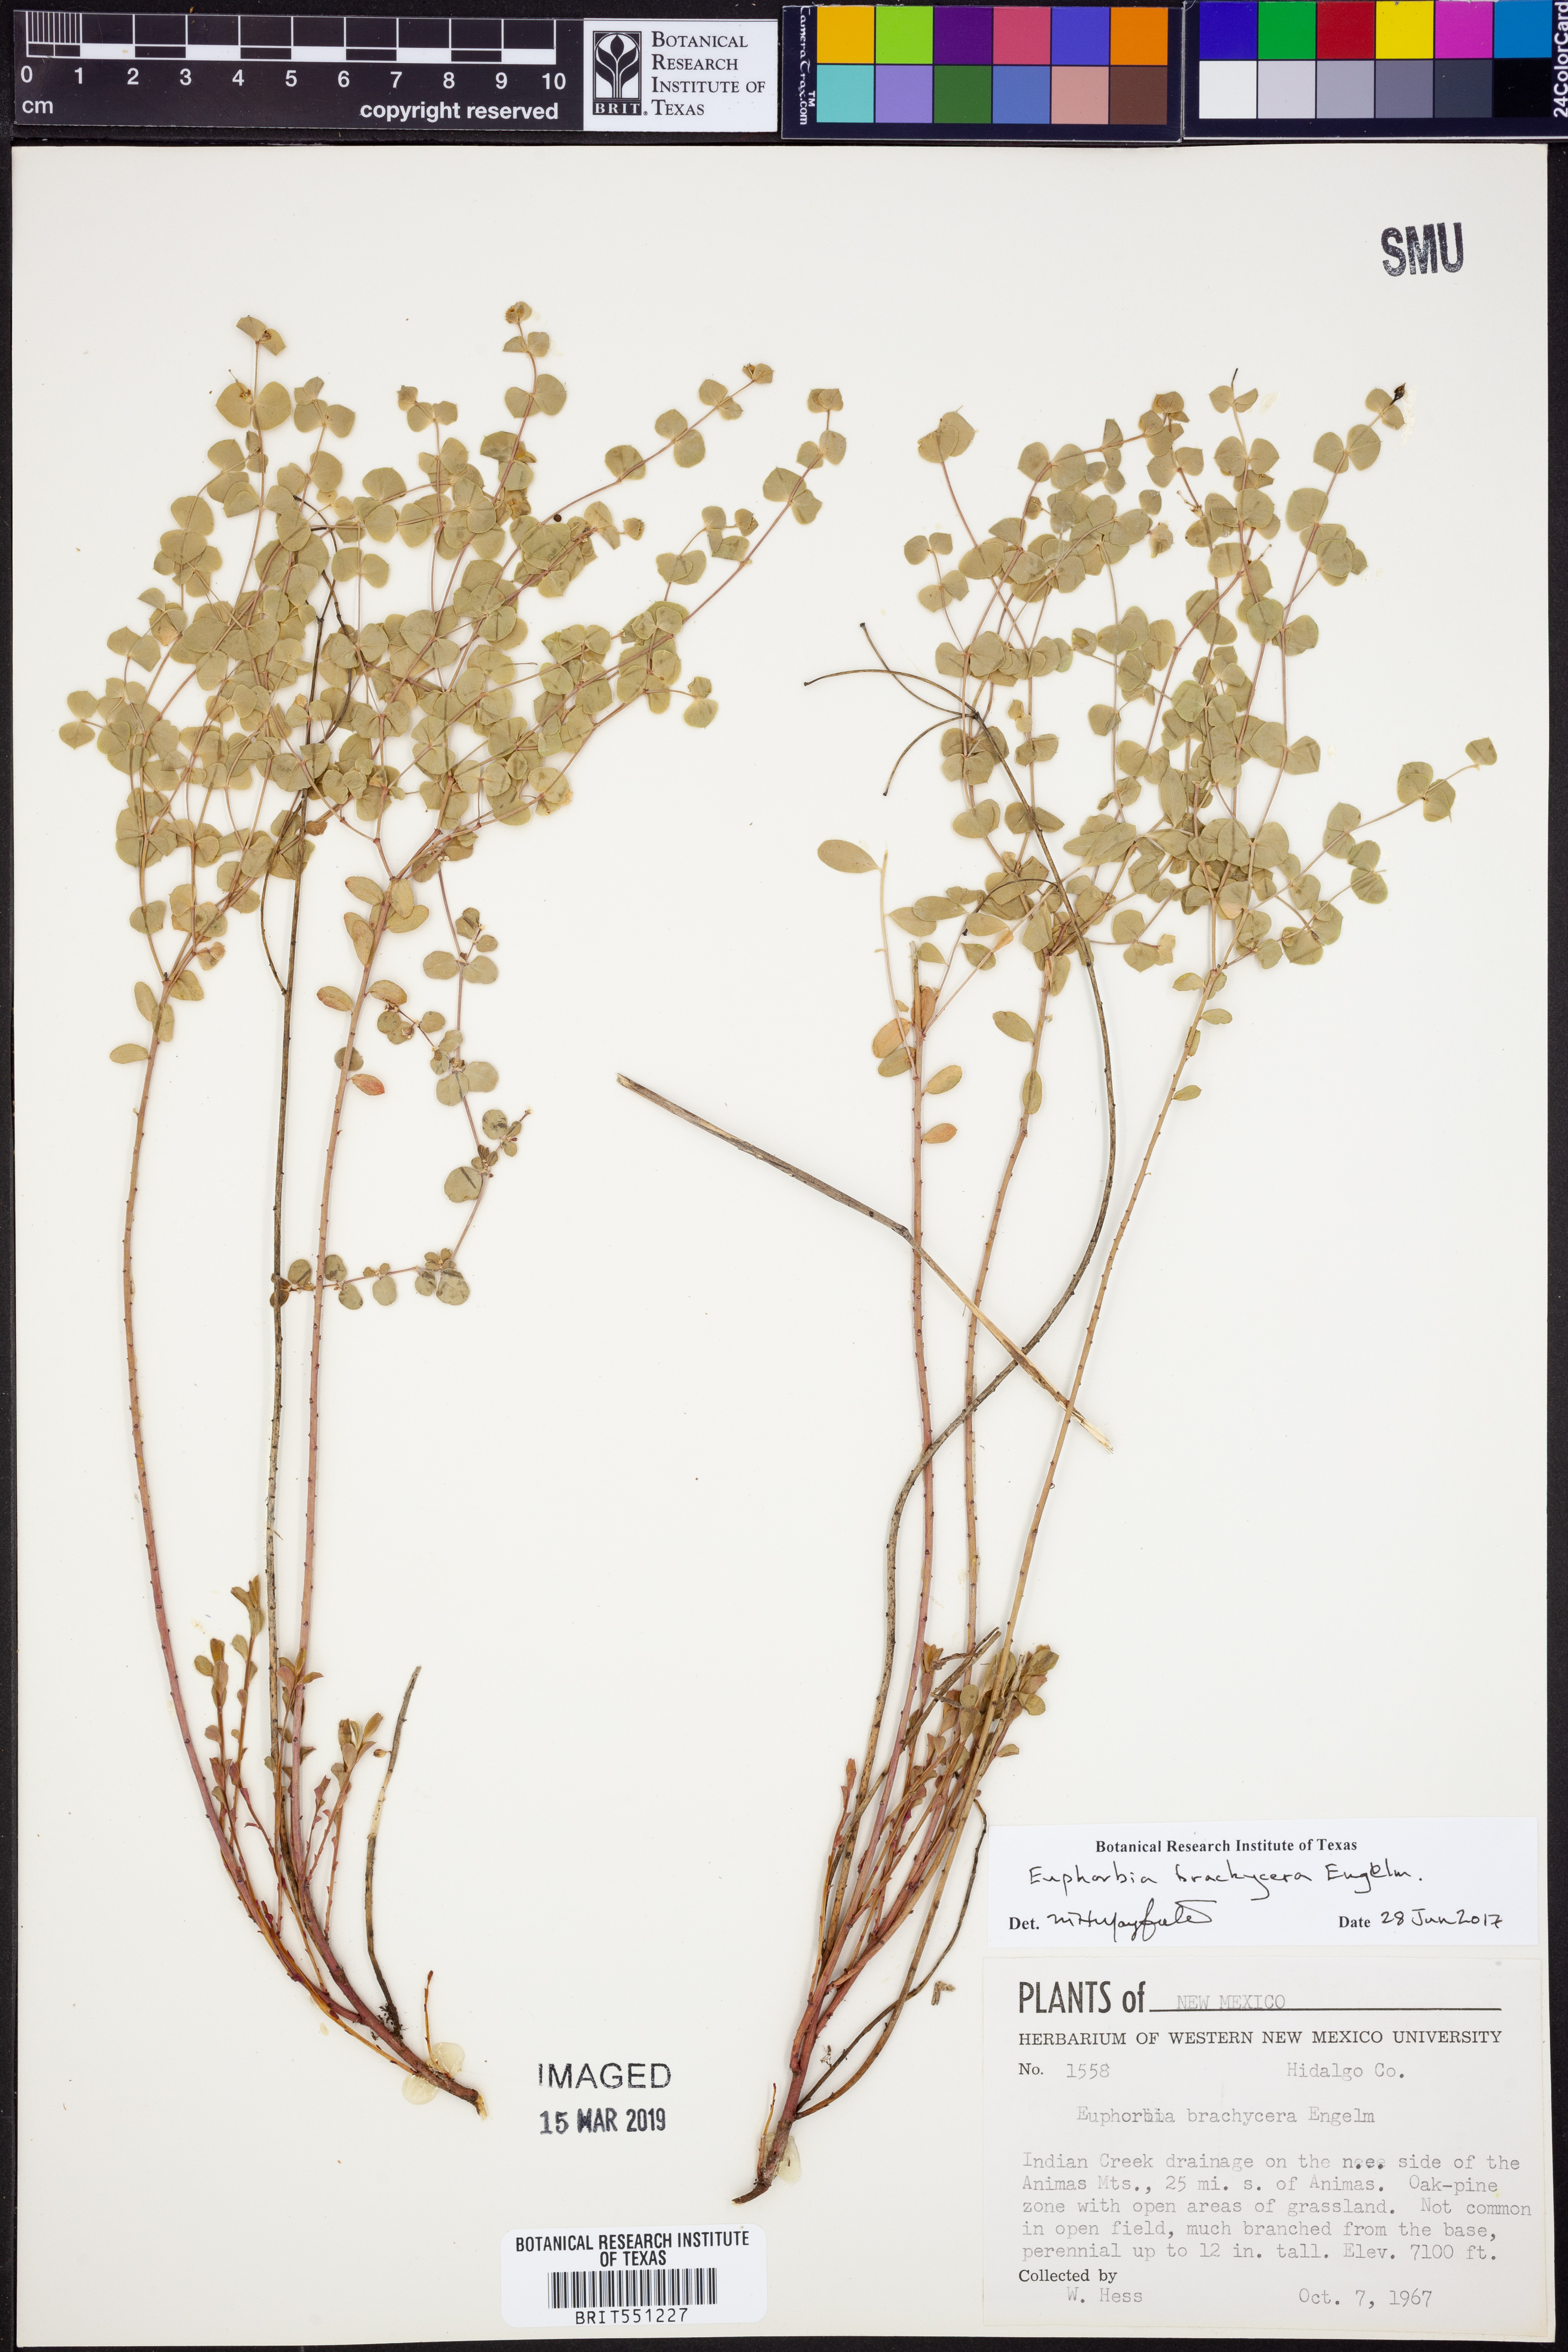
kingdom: Plantae
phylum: Tracheophyta
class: Magnoliopsida
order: Malpighiales
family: Euphorbiaceae
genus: Euphorbia
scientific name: Euphorbia brachycera
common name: Shorthorn spurge
